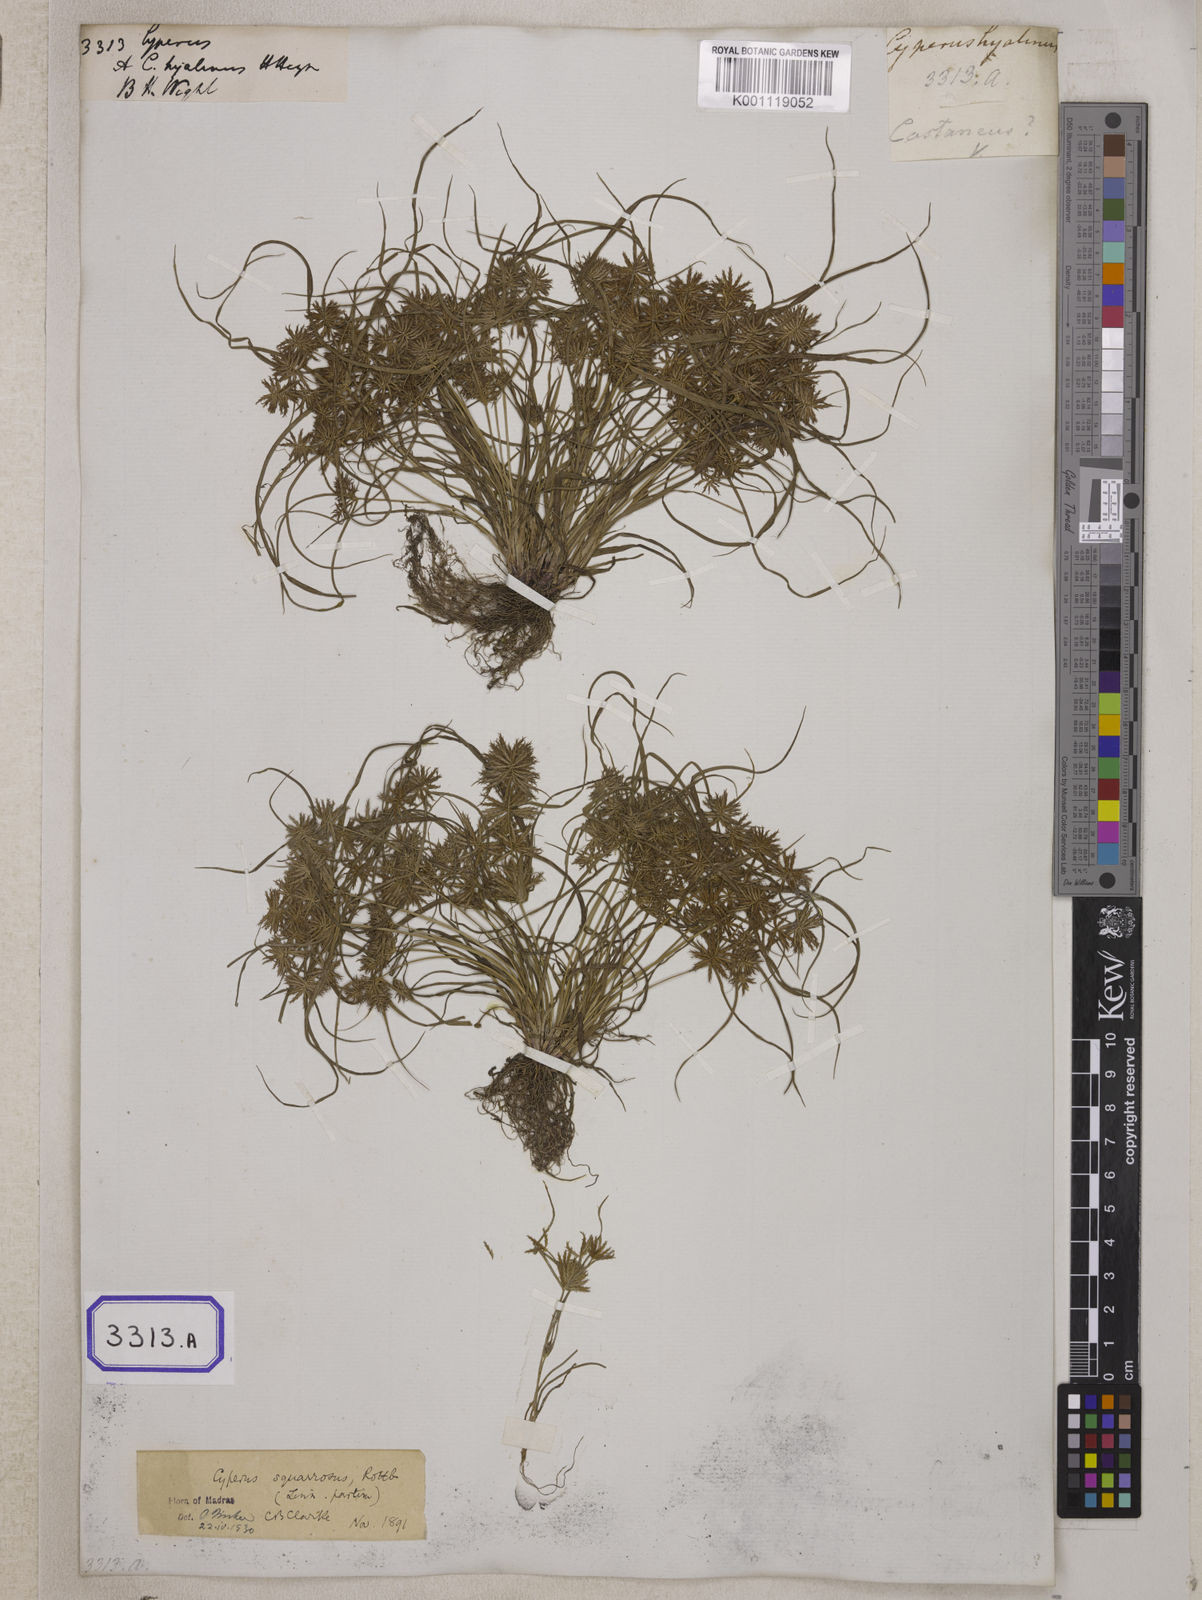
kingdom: Plantae
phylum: Tracheophyta
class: Liliopsida
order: Poales
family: Cyperaceae
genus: Cyperus
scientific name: Cyperus
